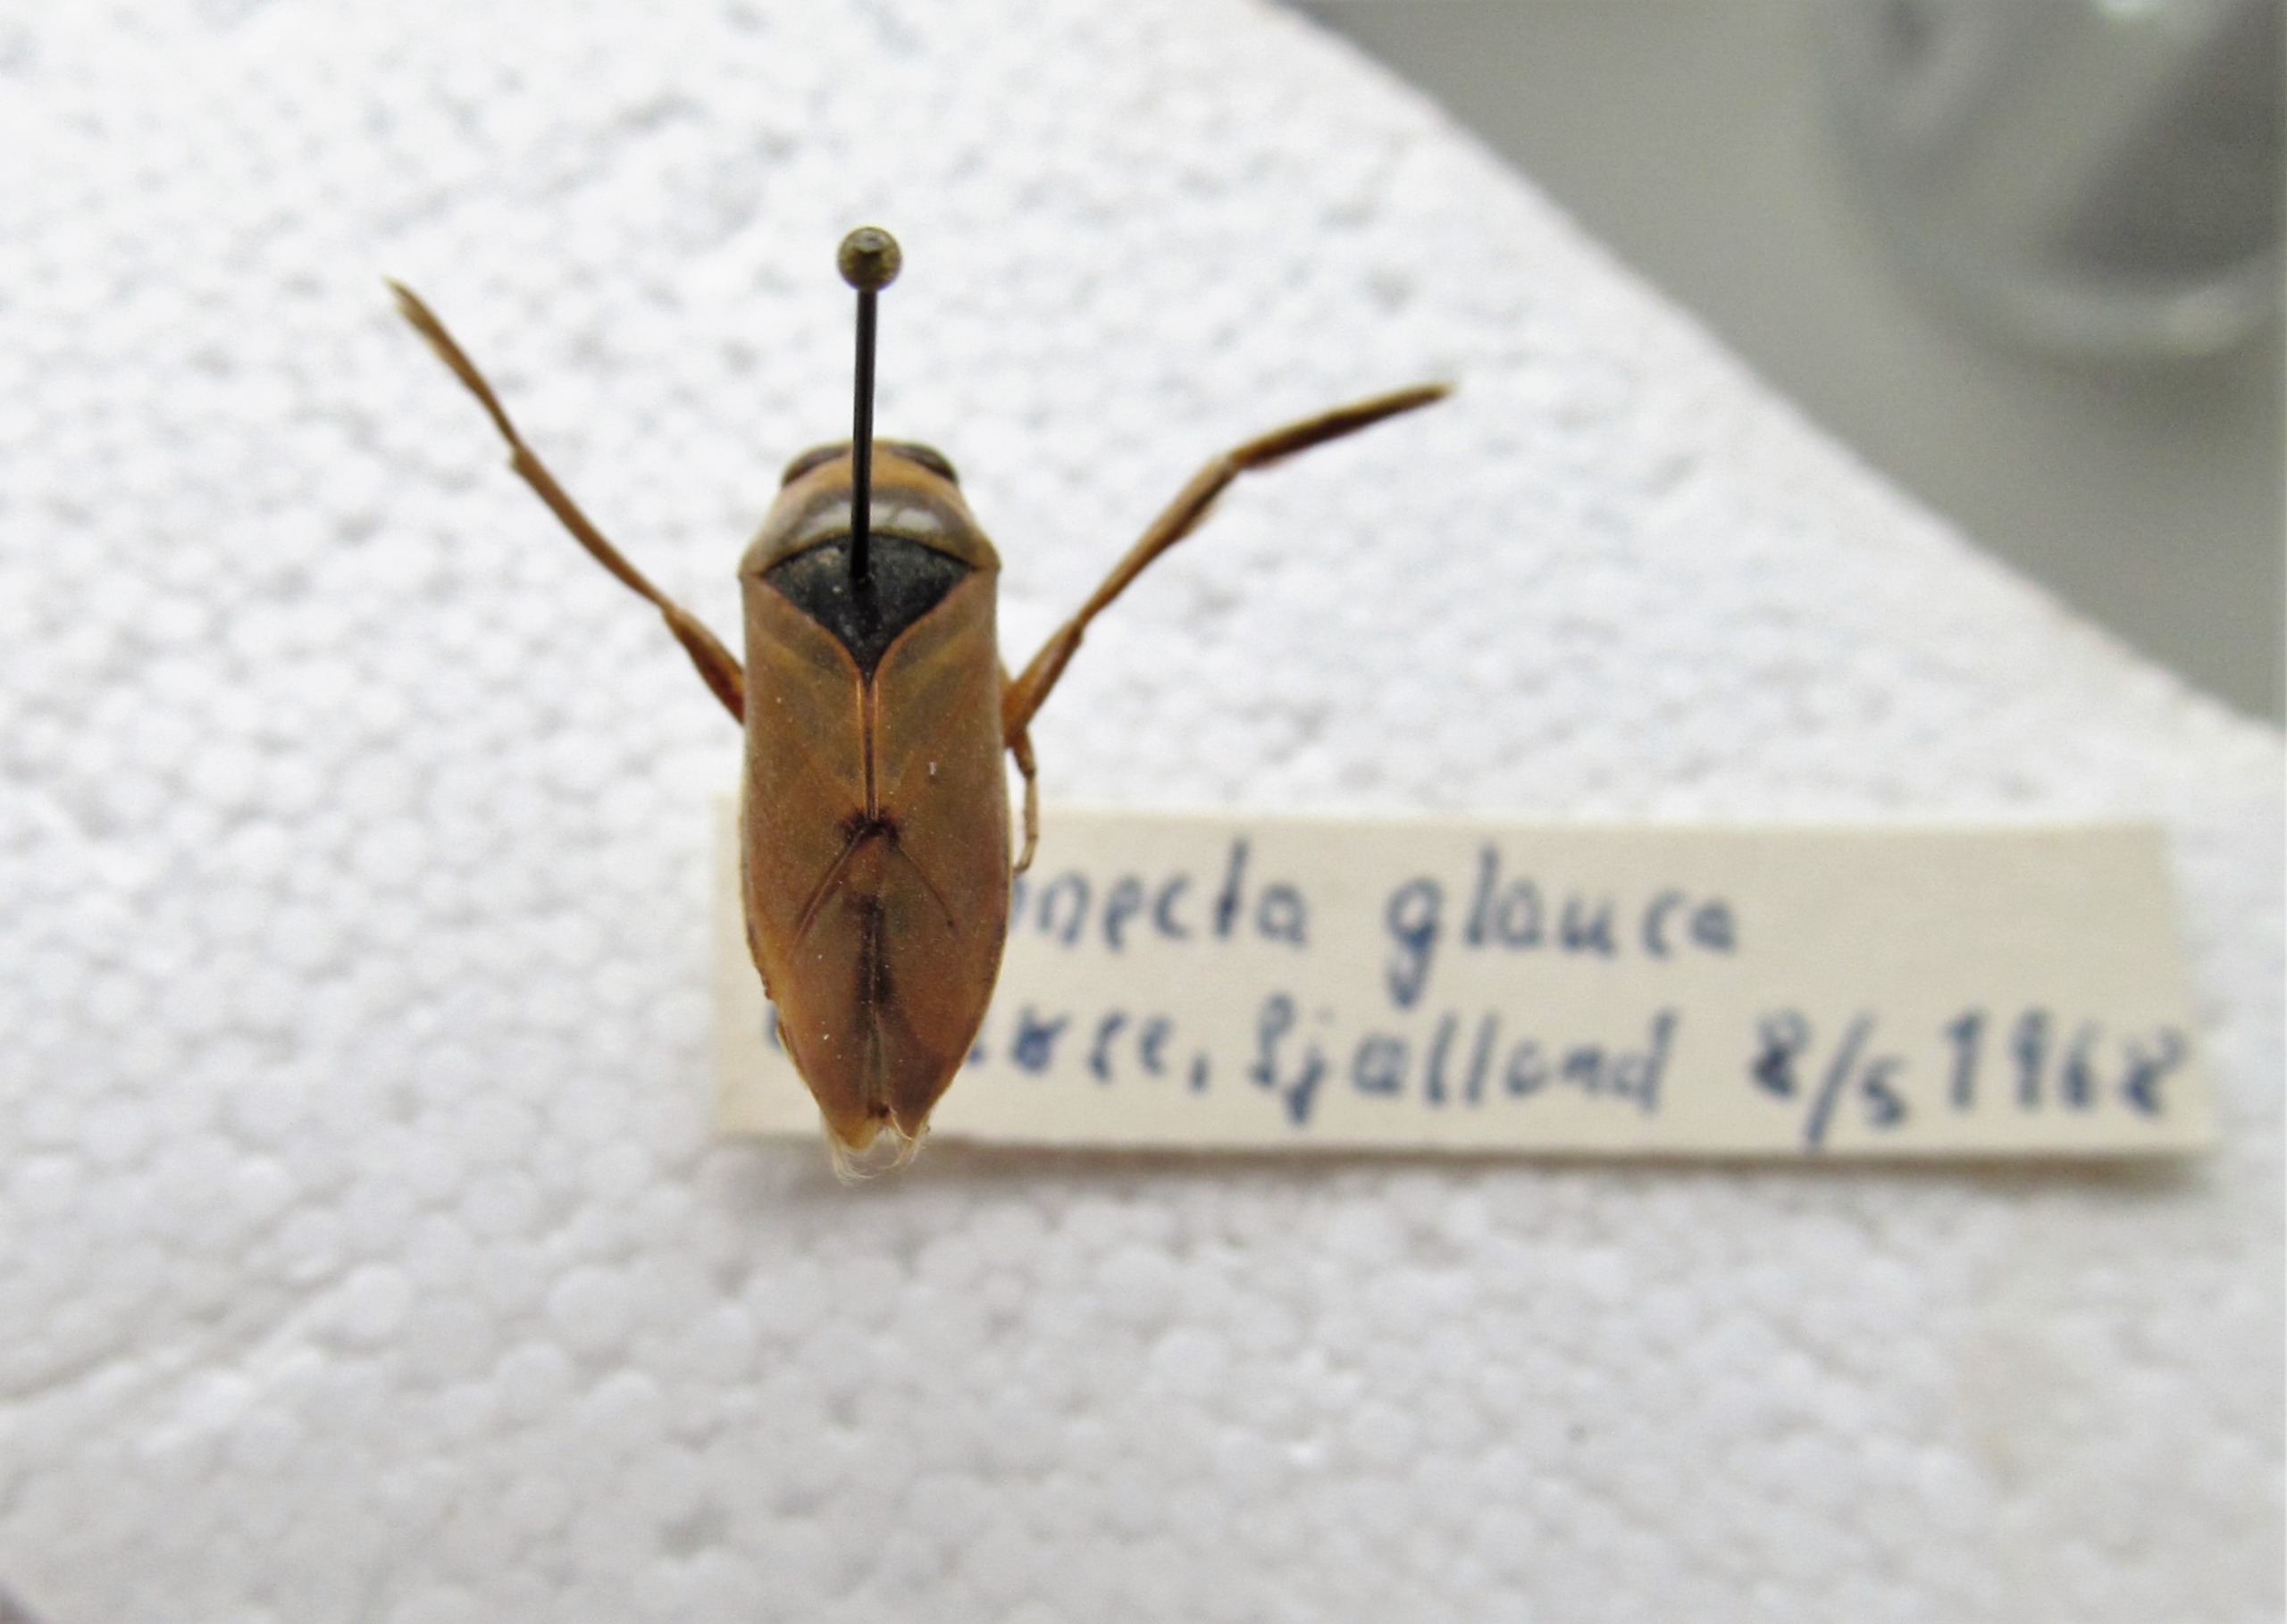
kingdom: Animalia
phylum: Arthropoda
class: Insecta
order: Hemiptera
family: Notonectidae
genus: Notonecta
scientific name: Notonecta glauca
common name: Almindelig rygsvømmer
